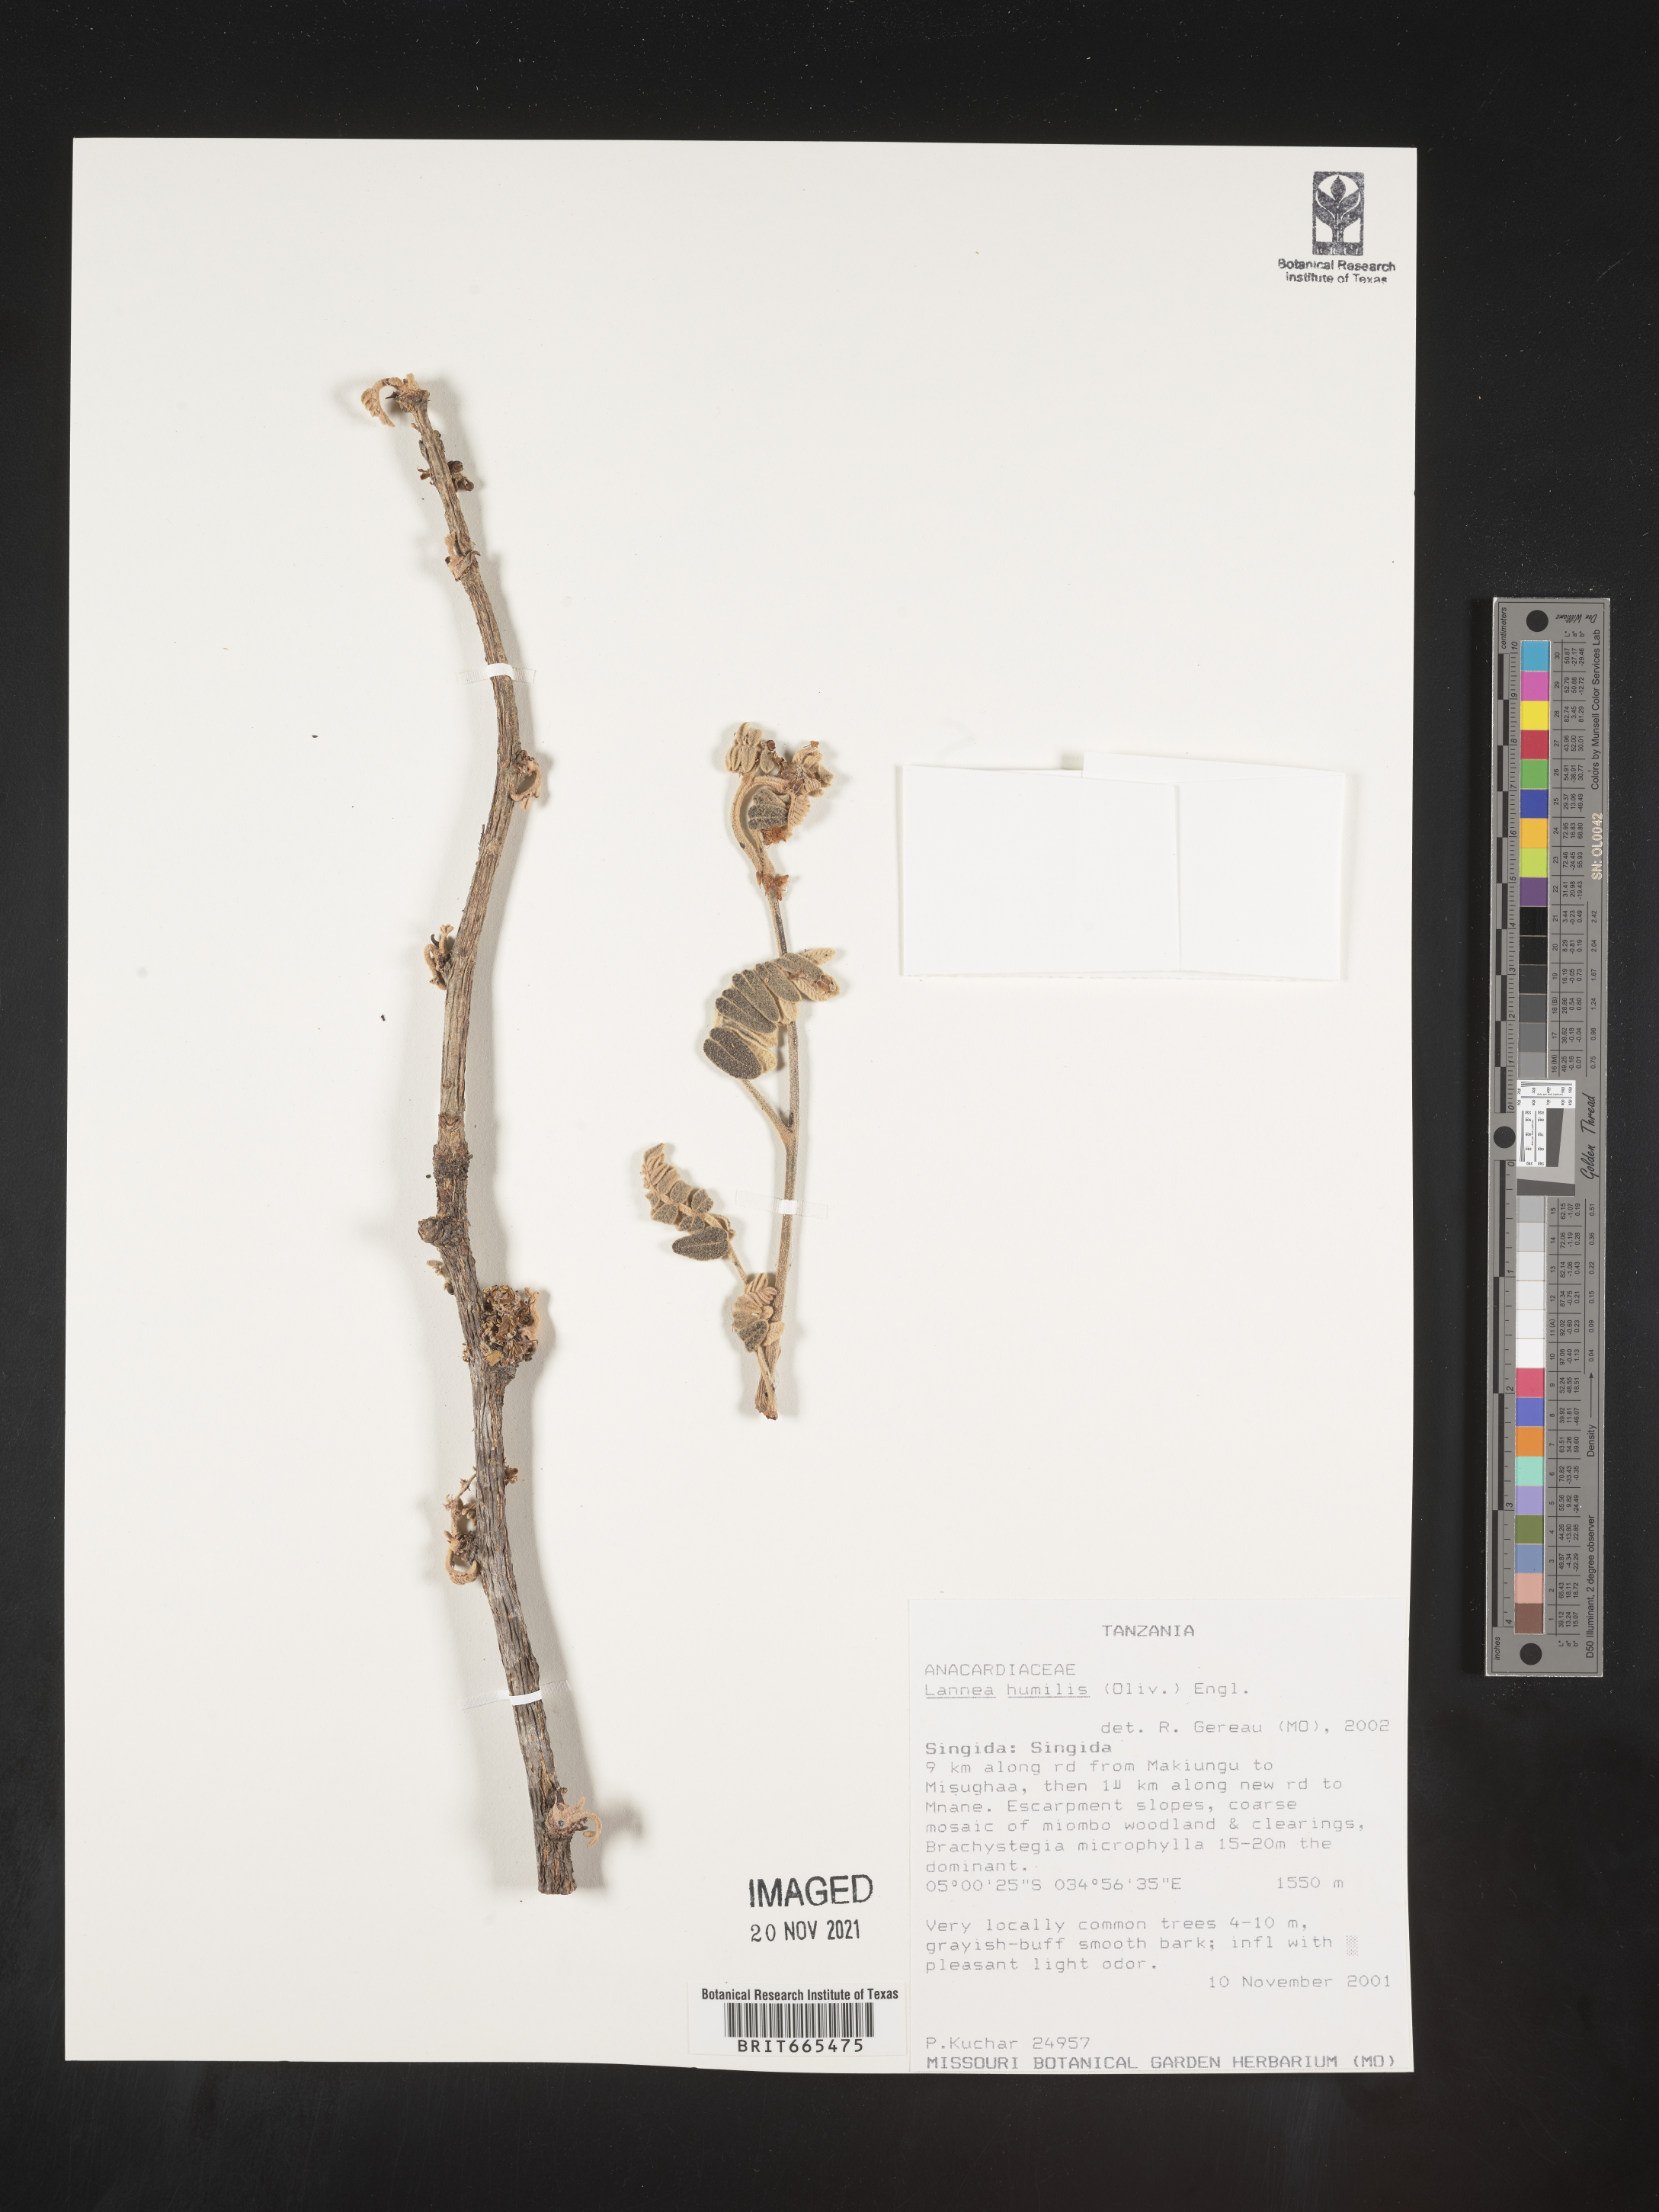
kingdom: Plantae
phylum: Tracheophyta
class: Magnoliopsida
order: Sapindales
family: Anacardiaceae
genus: Lannea
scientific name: Lannea
